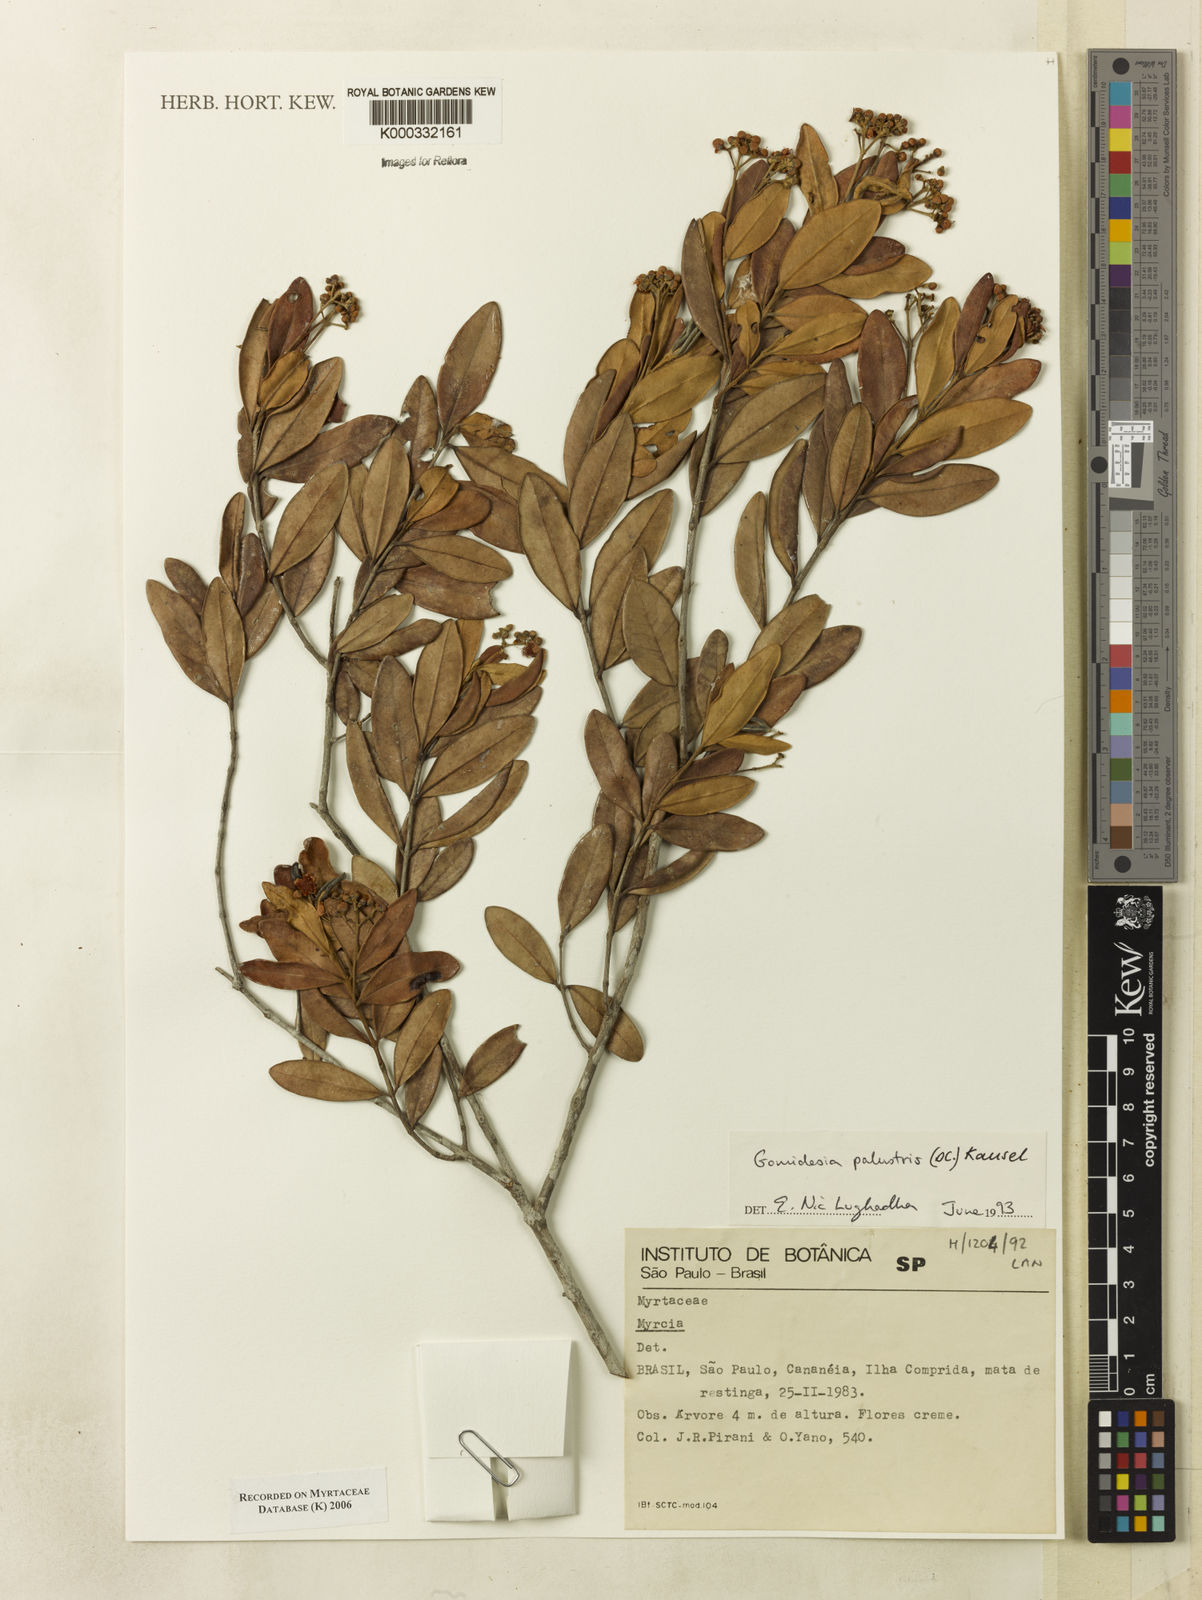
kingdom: Plantae
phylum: Tracheophyta
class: Magnoliopsida
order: Myrtales
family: Myrtaceae
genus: Myrcia
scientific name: Myrcia palustris
